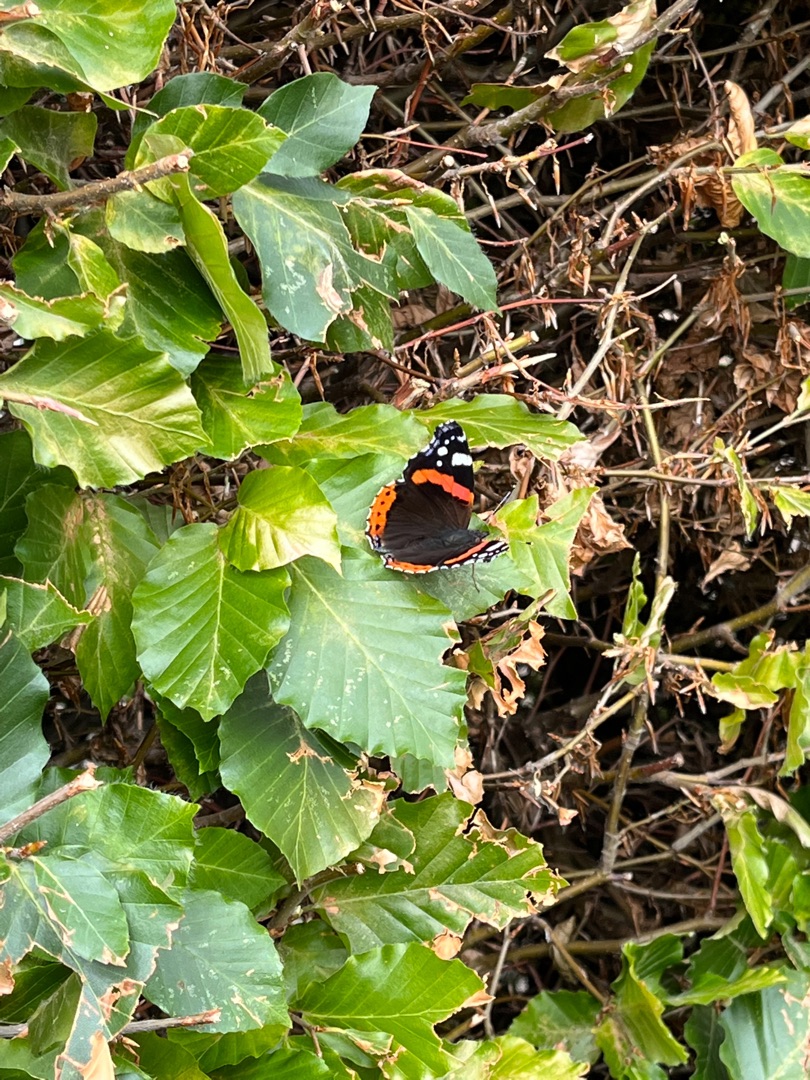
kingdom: Animalia
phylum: Arthropoda
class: Insecta
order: Lepidoptera
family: Nymphalidae
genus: Vanessa
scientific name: Vanessa atalanta
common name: Admiral
